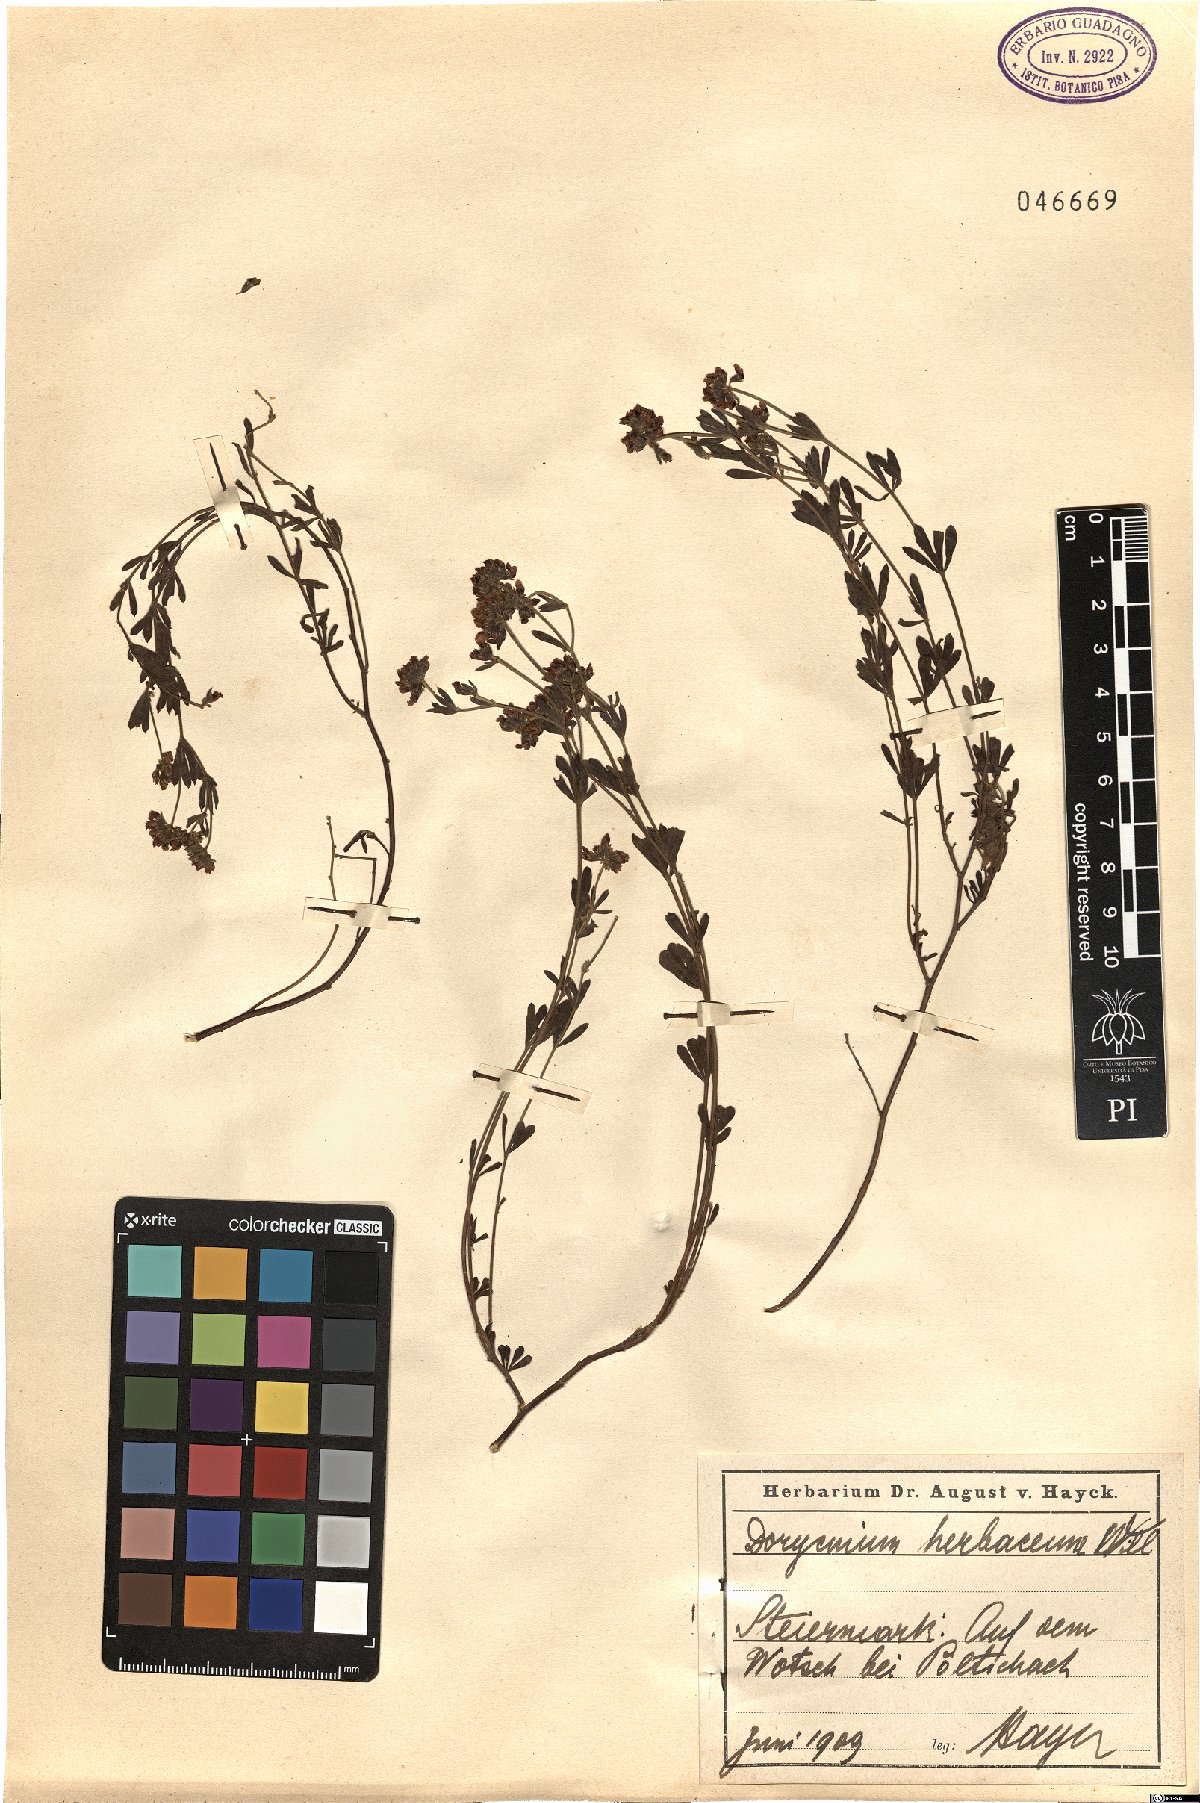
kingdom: Plantae
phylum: Tracheophyta
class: Magnoliopsida
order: Fabales
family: Fabaceae
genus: Lotus
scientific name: Lotus herbaceus
